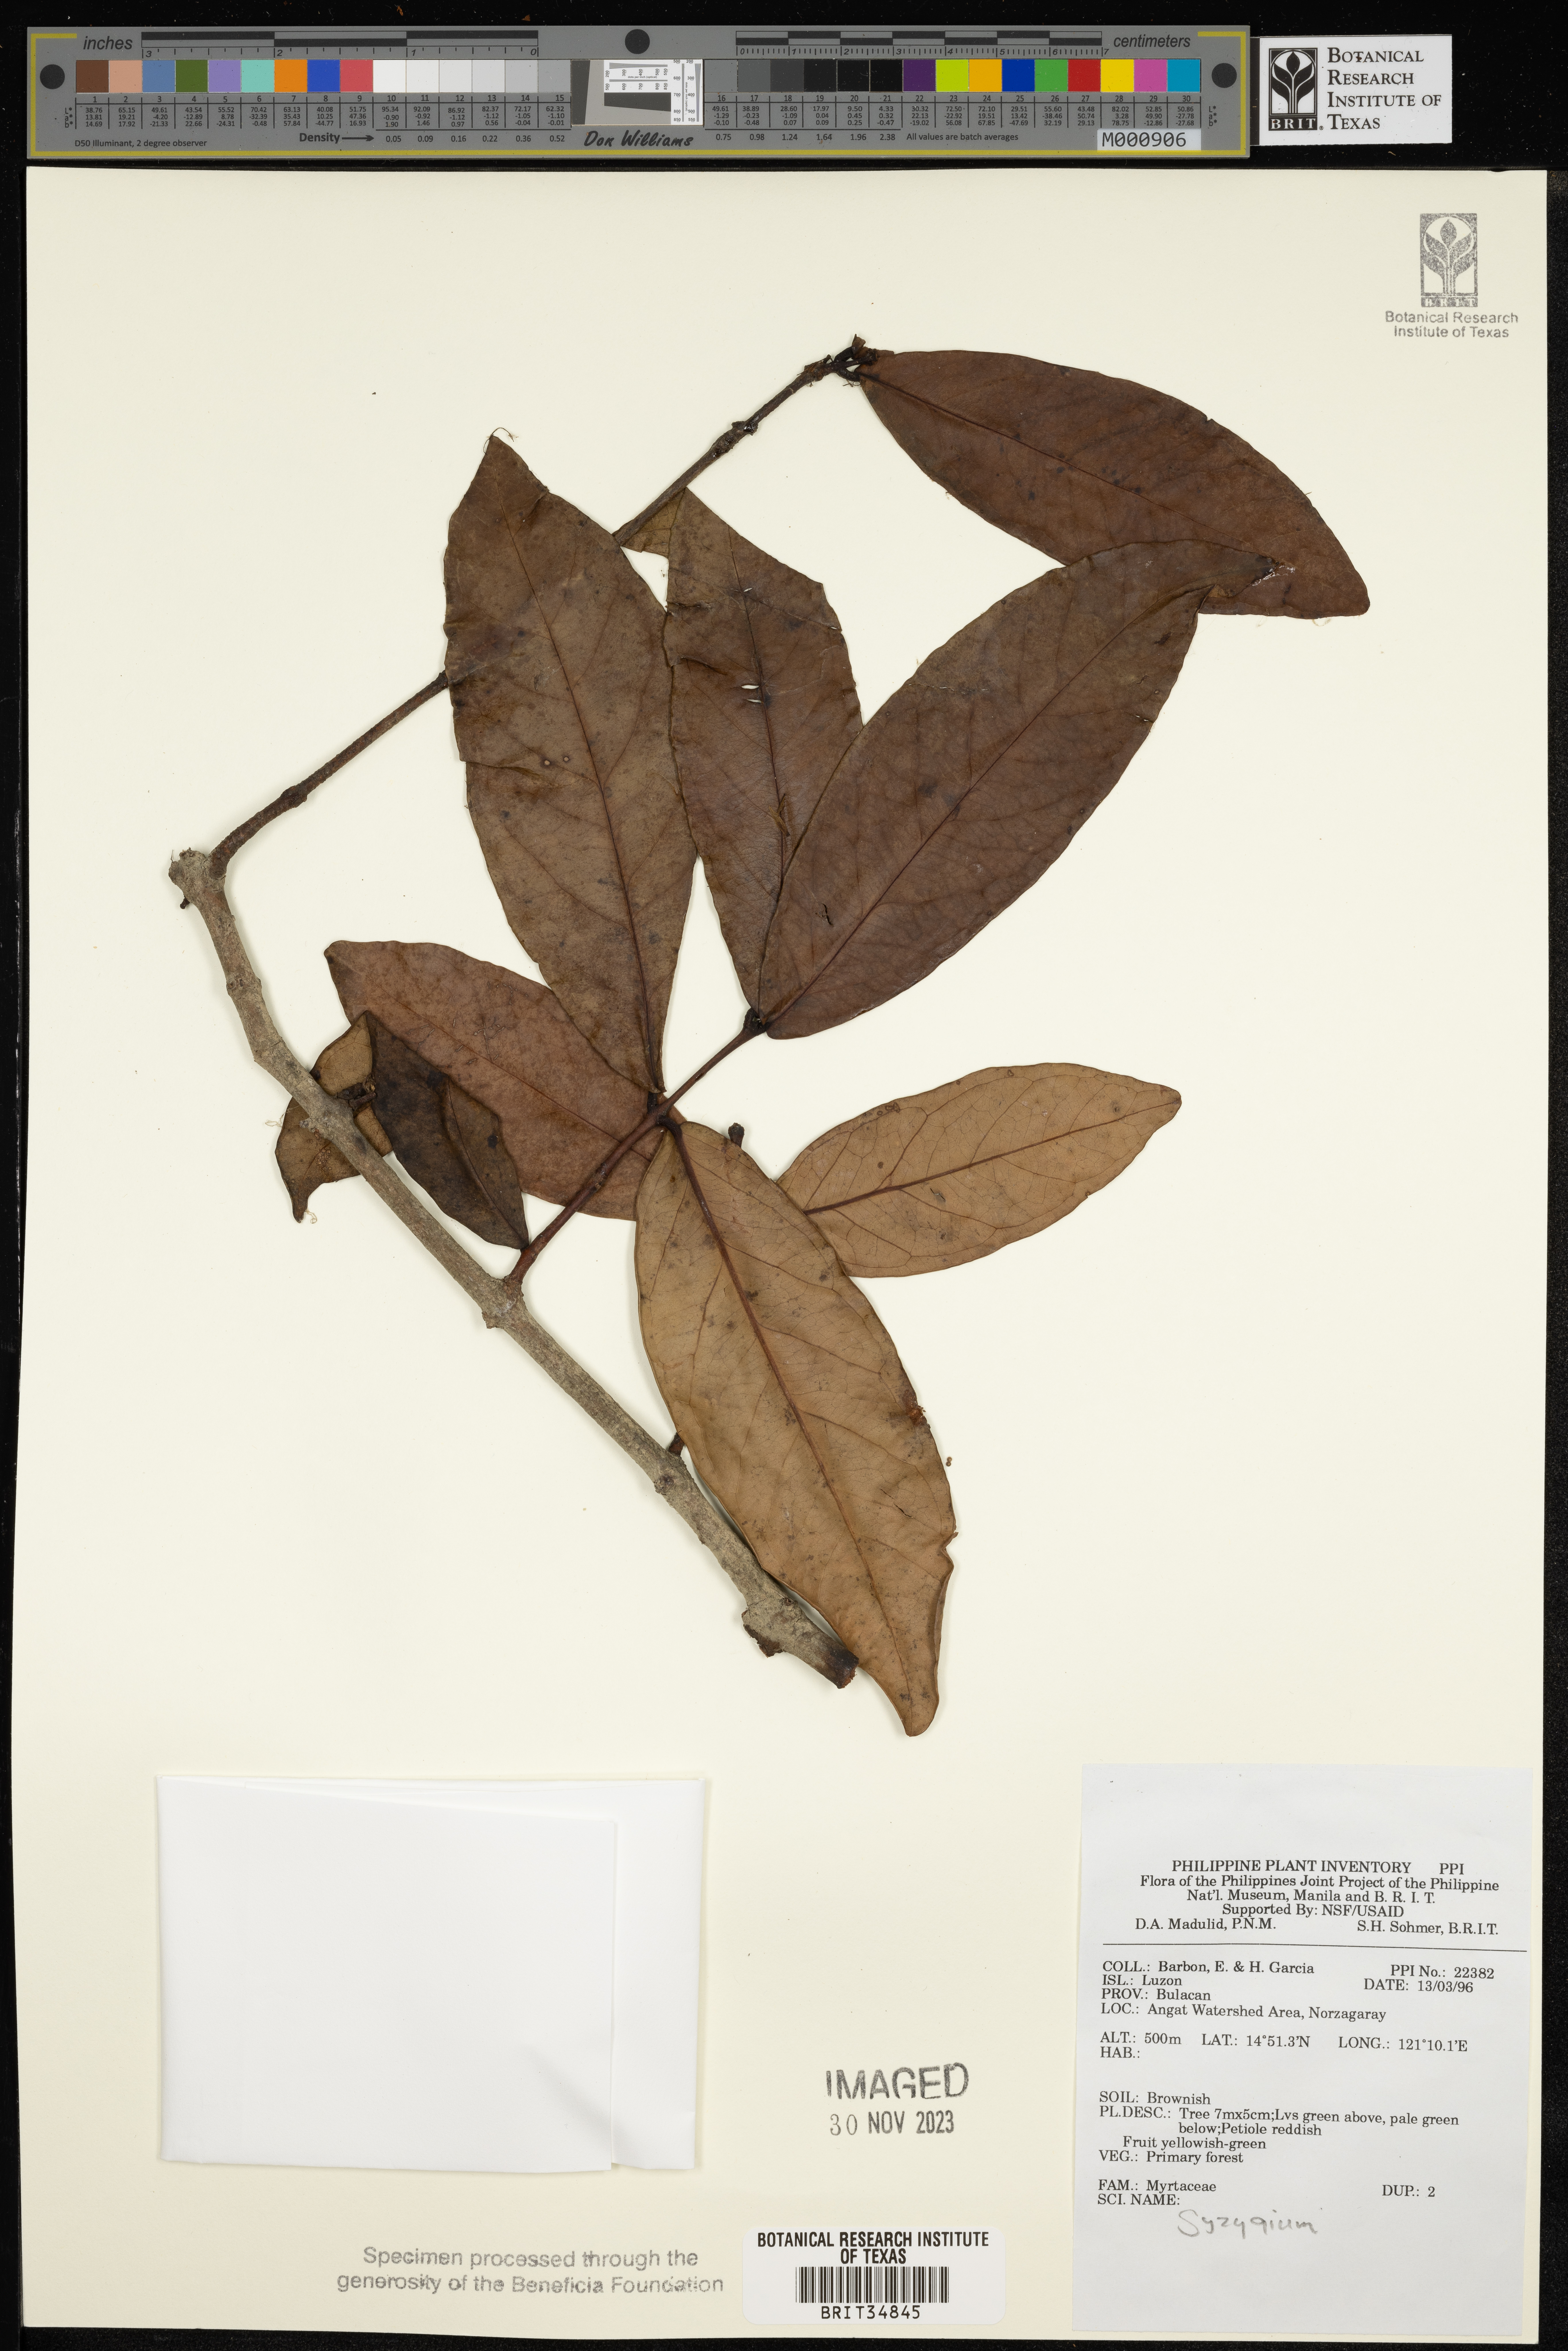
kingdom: Plantae
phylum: Tracheophyta
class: Magnoliopsida
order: Myrtales
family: Myrtaceae
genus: Syzygium
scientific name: Syzygium
